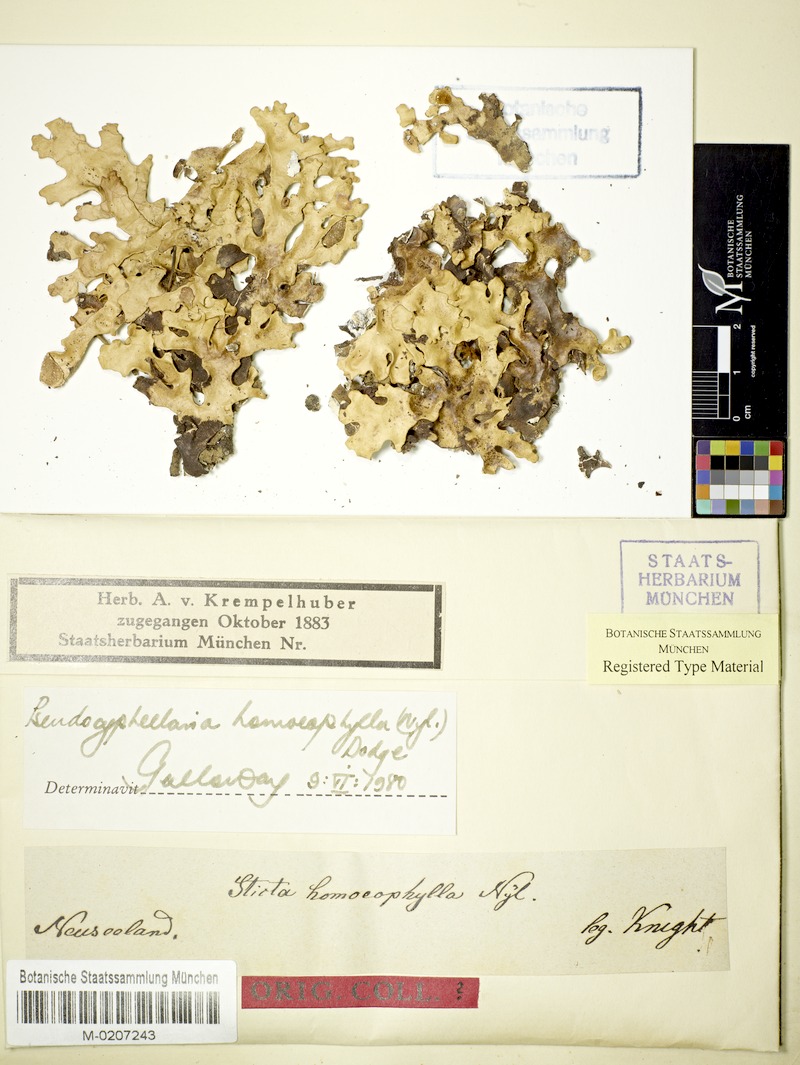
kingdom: Fungi
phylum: Ascomycota
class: Lecanoromycetes
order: Peltigerales
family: Lobariaceae
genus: Pseudocyphellaria
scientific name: Pseudocyphellaria homeophylla
